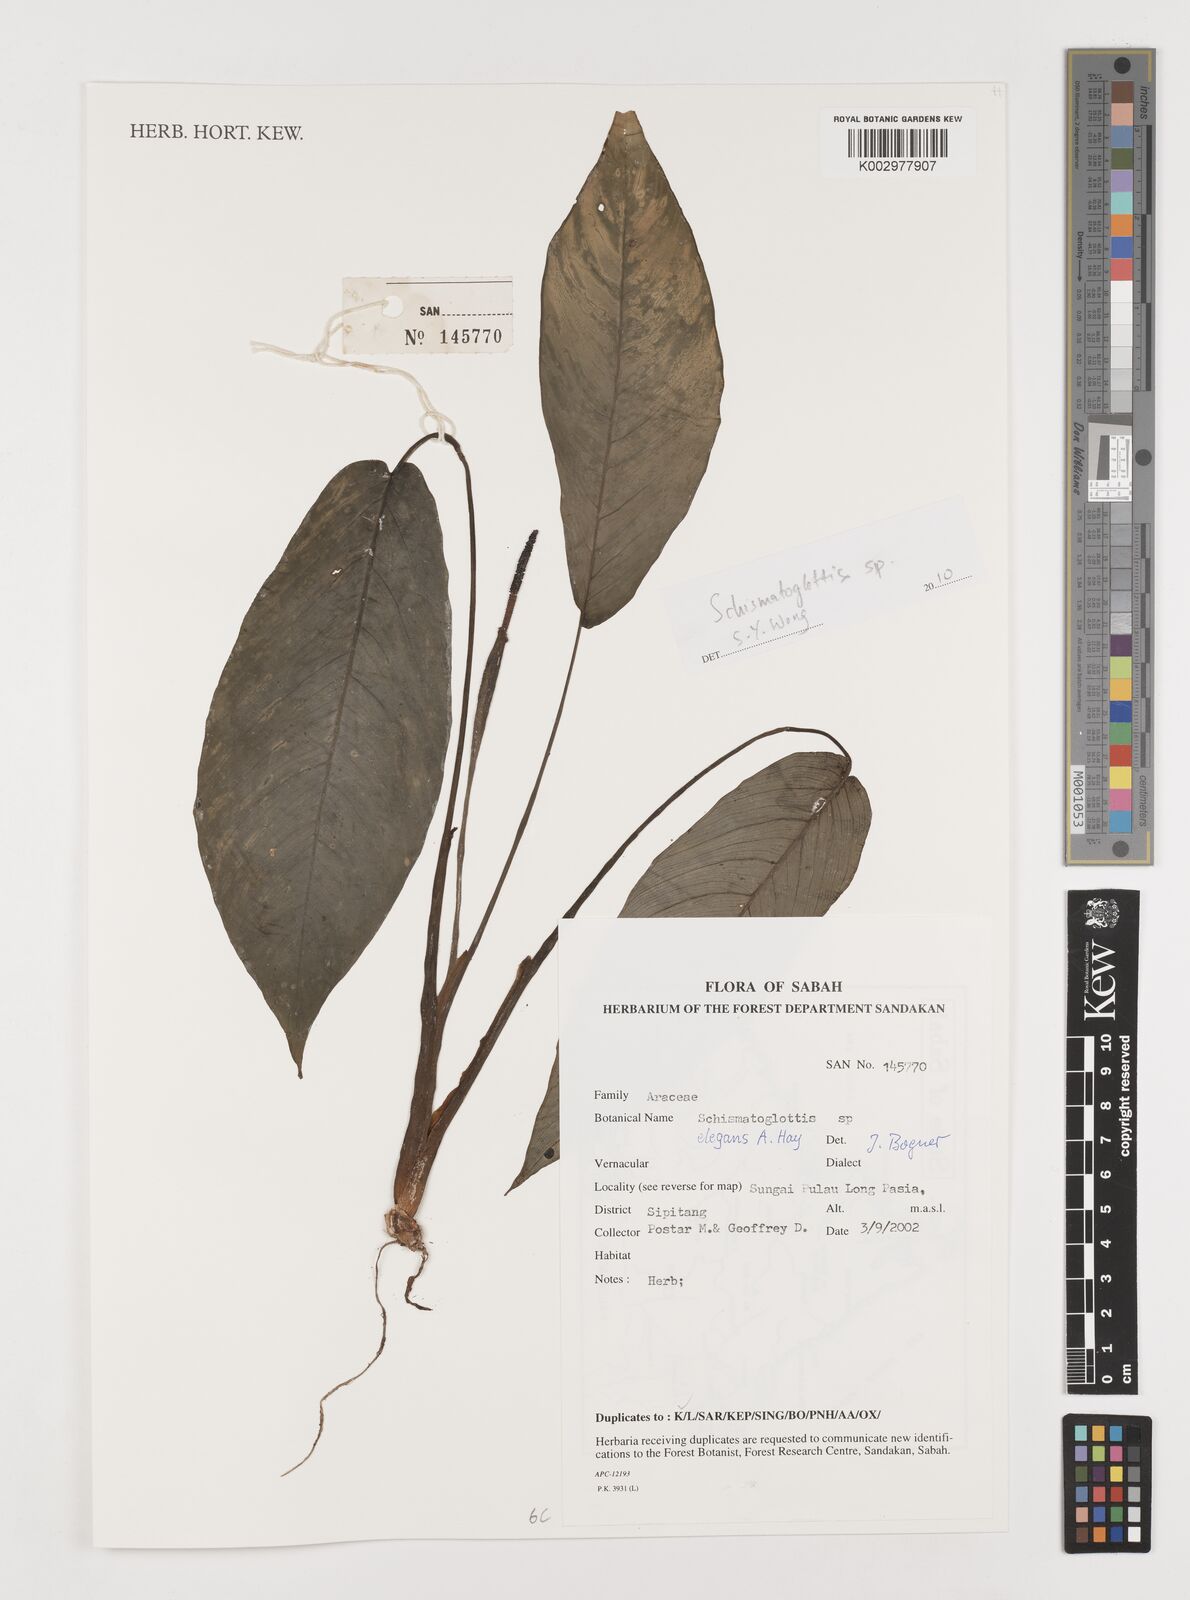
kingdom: Plantae
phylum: Tracheophyta
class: Liliopsida
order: Alismatales
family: Araceae
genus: Schismatoglottis
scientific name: Schismatoglottis elegans
